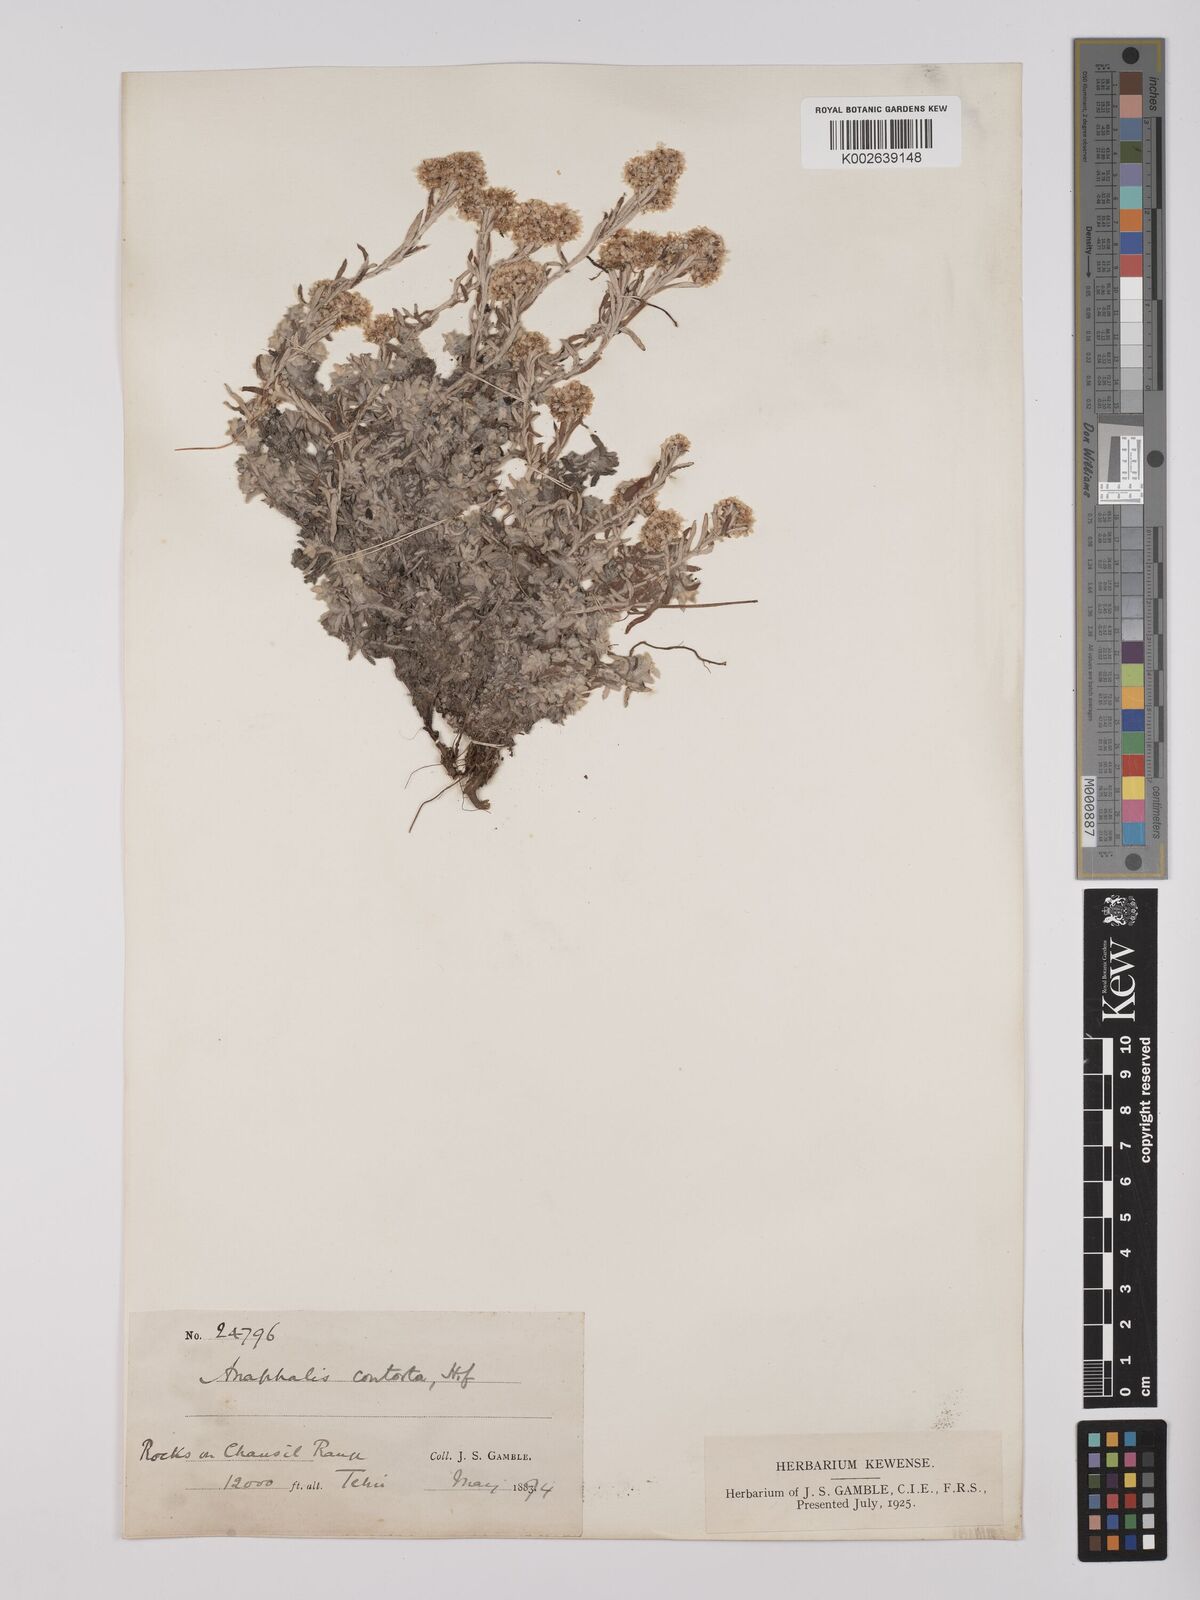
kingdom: Plantae
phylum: Tracheophyta
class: Magnoliopsida
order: Asterales
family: Asteraceae
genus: Anaphalis
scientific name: Anaphalis contorta
